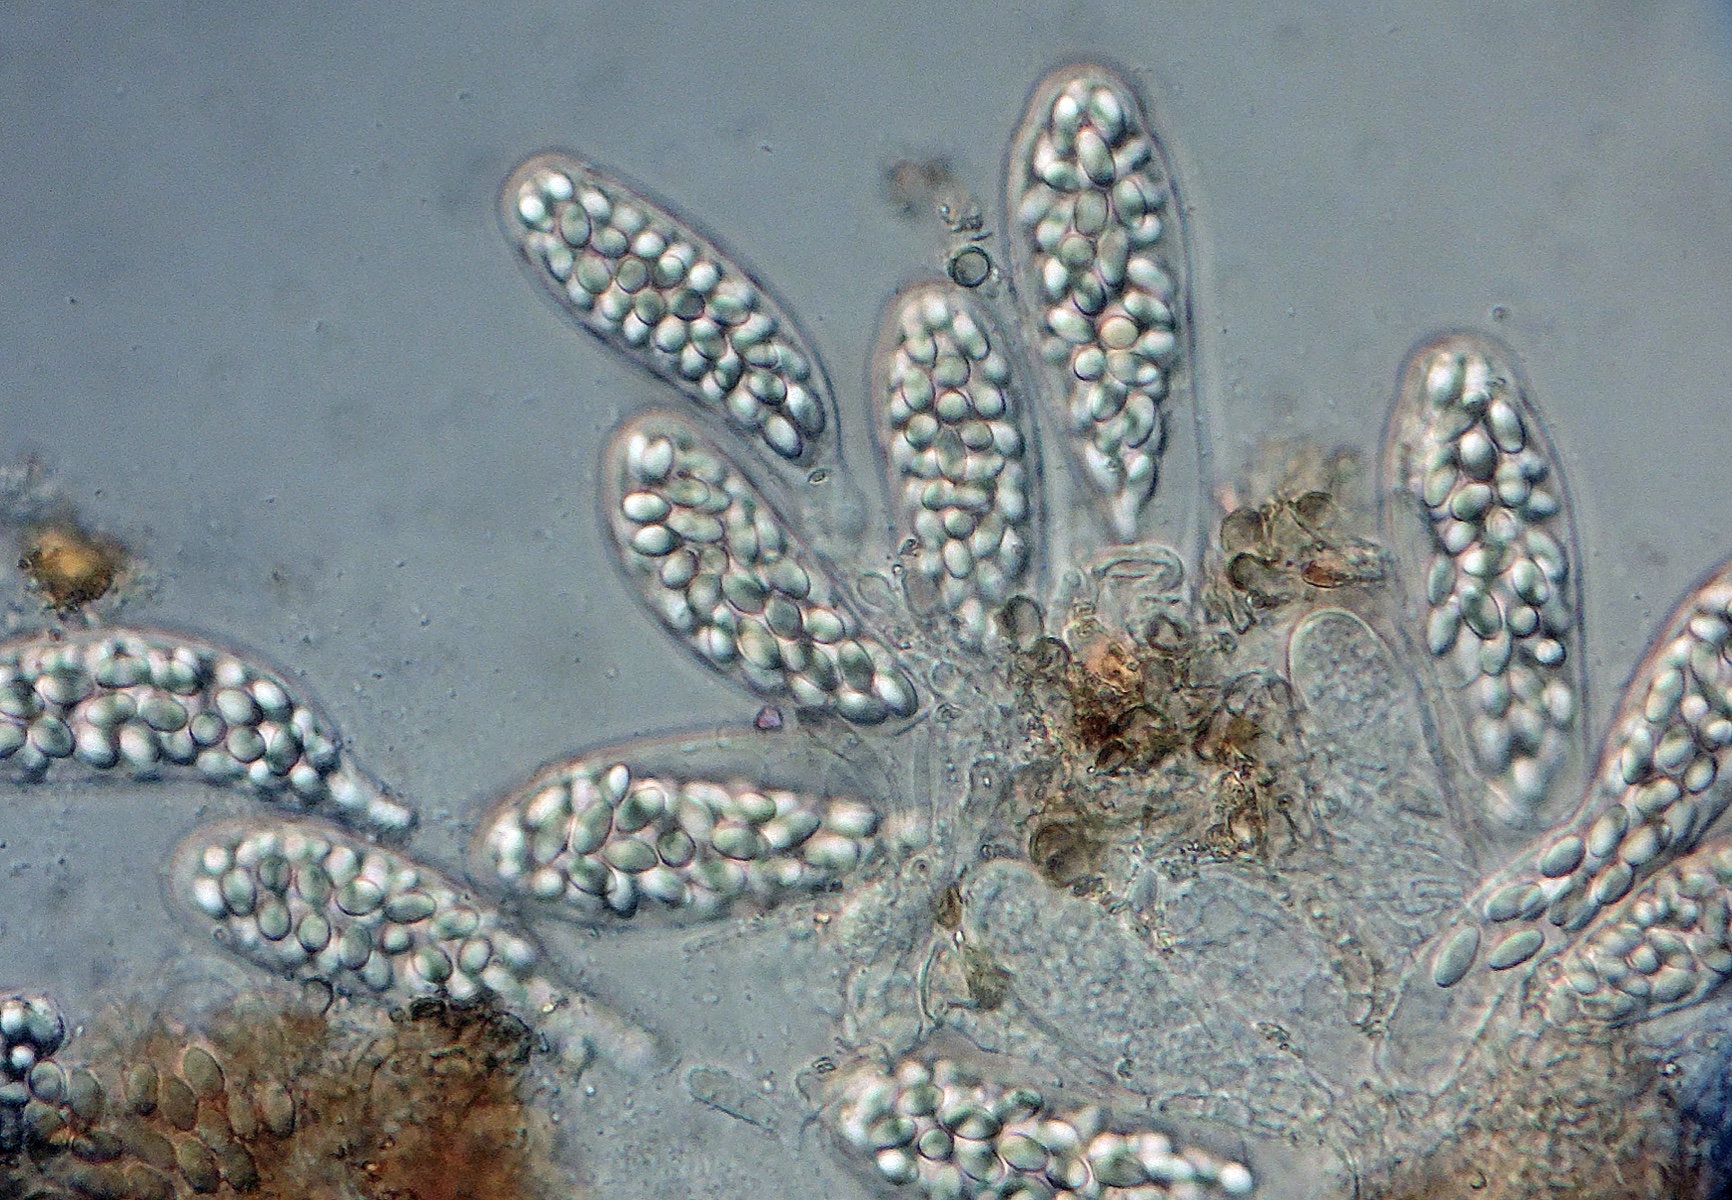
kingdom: Fungi
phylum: Ascomycota
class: Leotiomycetes
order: Thelebolales
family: Thelebolaceae
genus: Thelebolus
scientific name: Thelebolus
